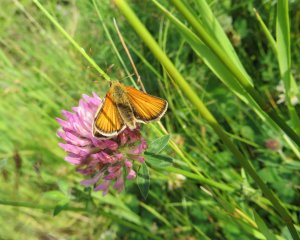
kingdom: Animalia
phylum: Arthropoda
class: Insecta
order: Lepidoptera
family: Hesperiidae
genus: Thymelicus
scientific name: Thymelicus lineola
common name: European Skipper
